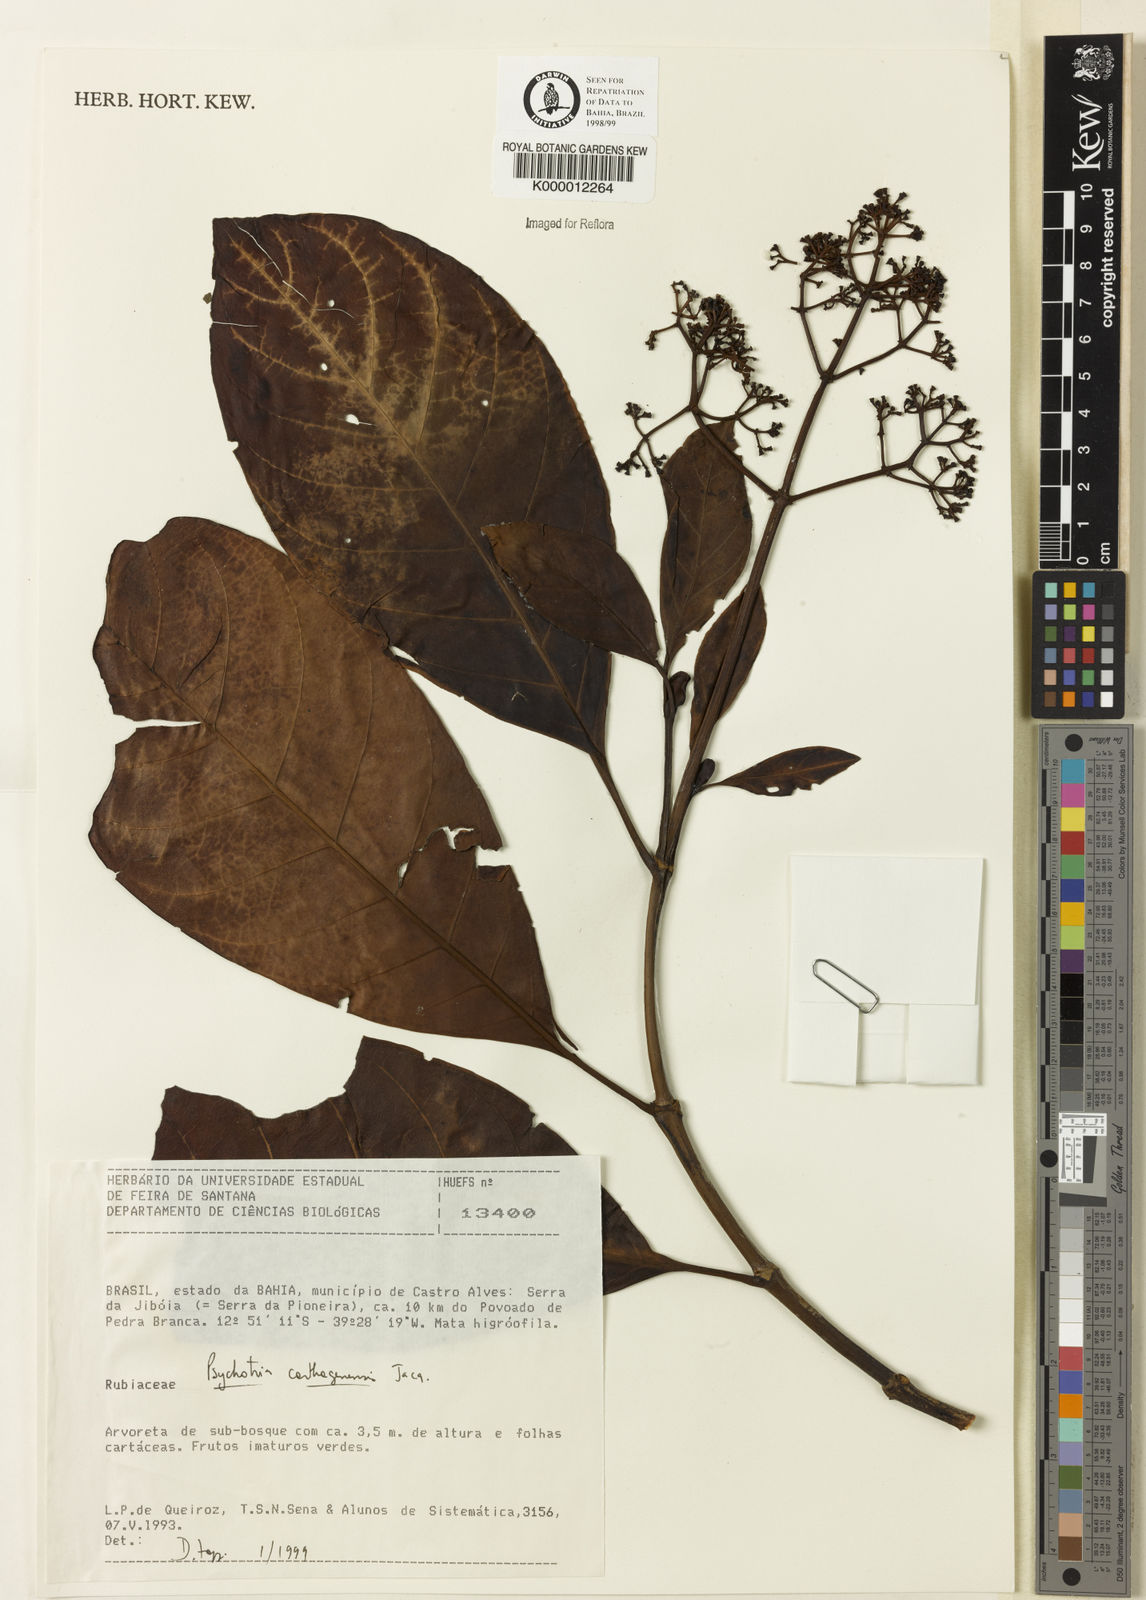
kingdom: Plantae
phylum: Tracheophyta
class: Magnoliopsida
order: Gentianales
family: Rubiaceae
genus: Psychotria
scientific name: Psychotria carthagenensis
